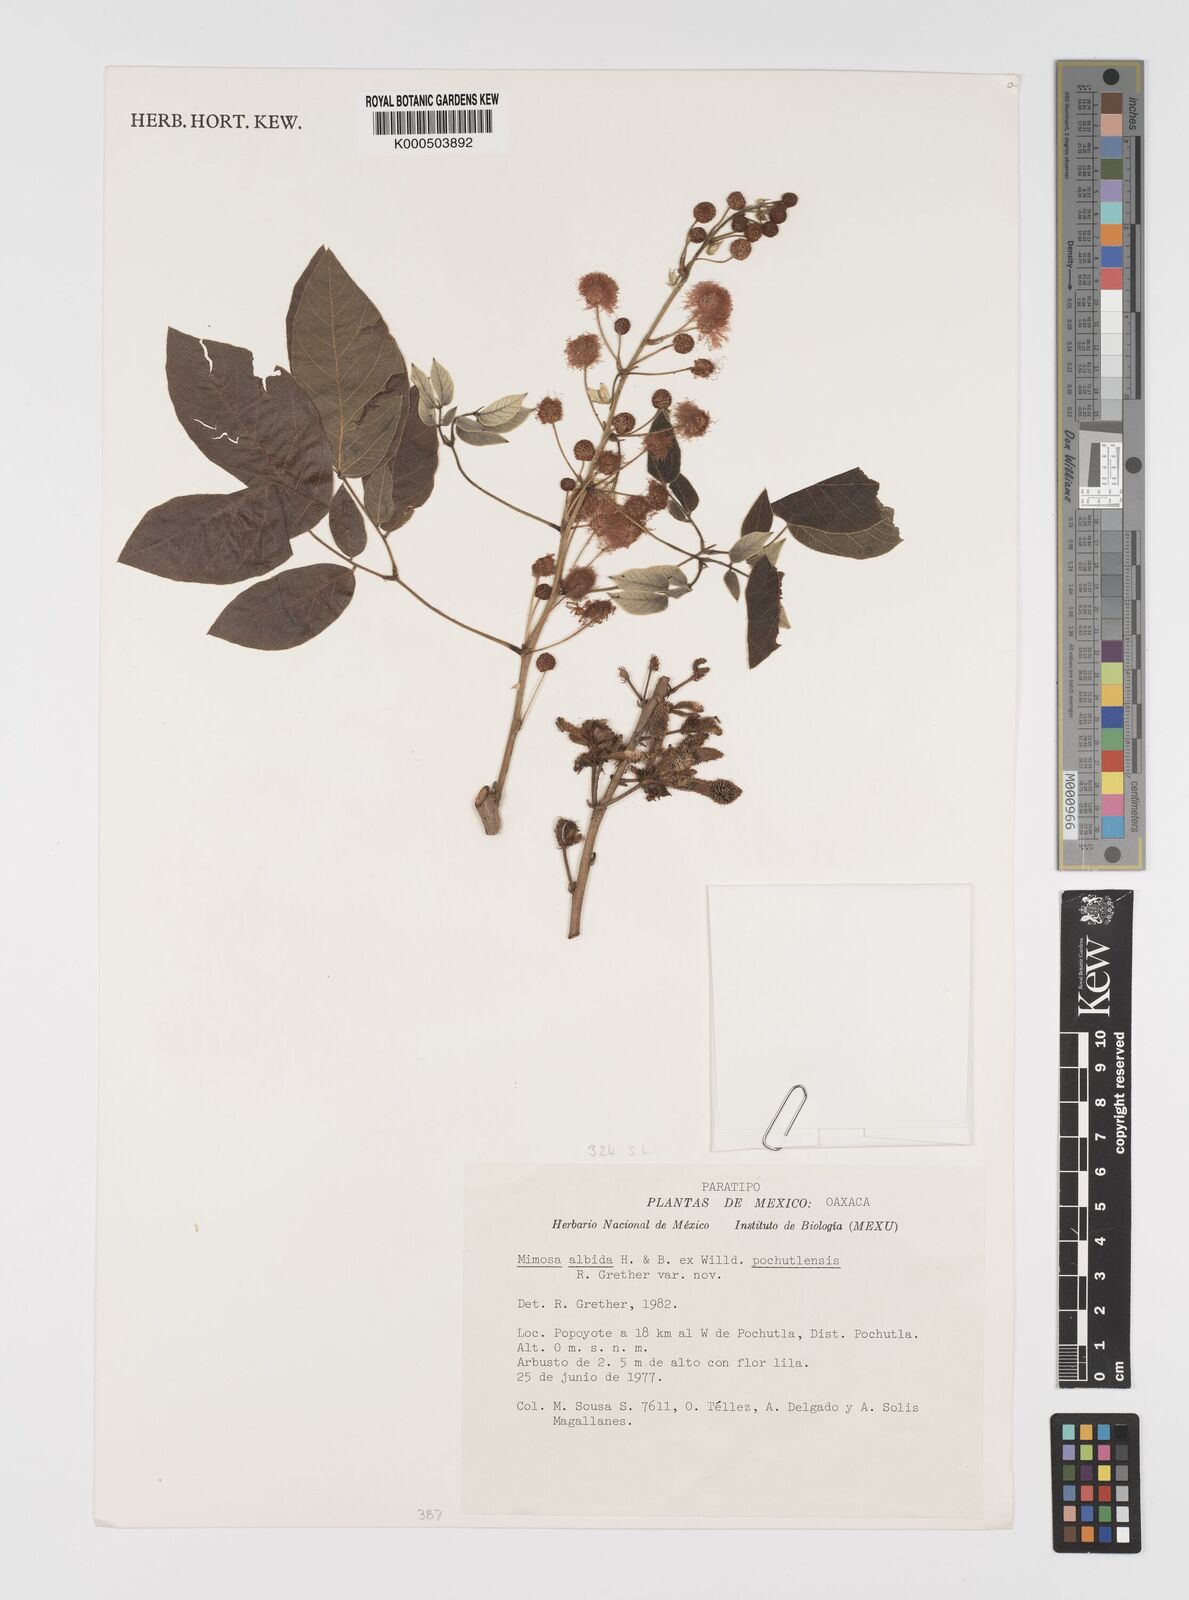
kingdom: Plantae
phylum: Tracheophyta
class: Magnoliopsida
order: Fabales
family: Fabaceae
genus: Mimosa
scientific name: Mimosa albida
